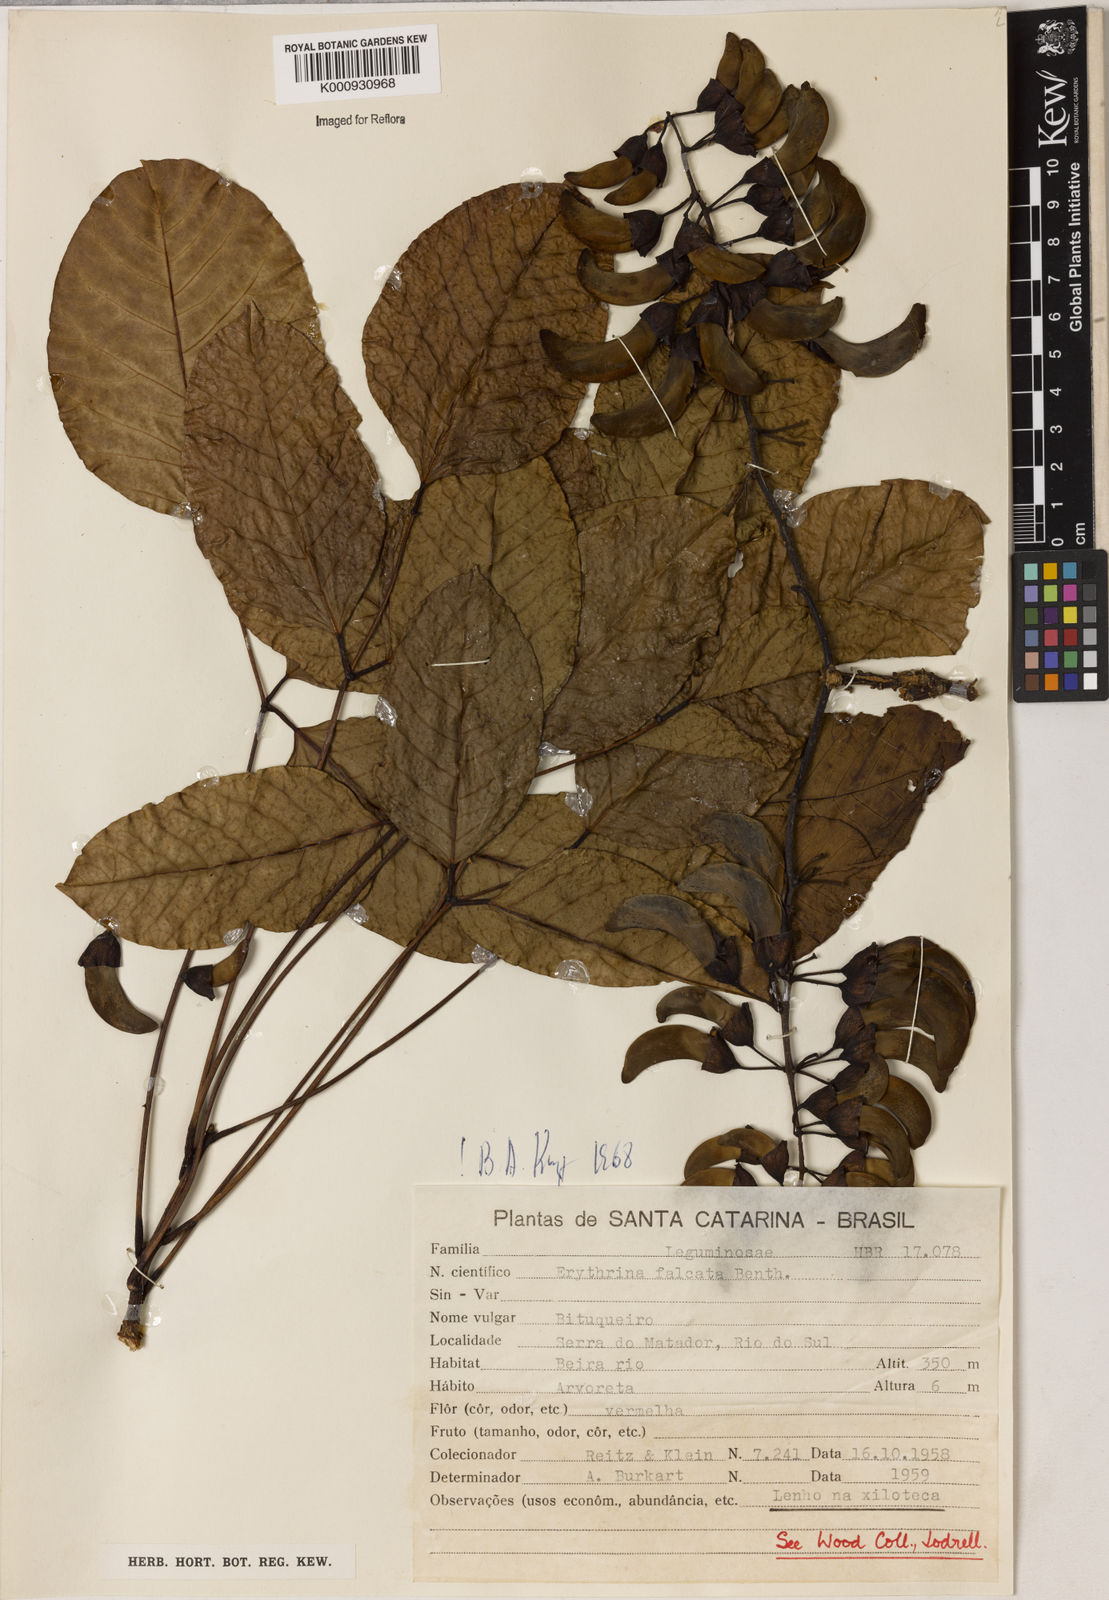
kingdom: Plantae
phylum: Tracheophyta
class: Magnoliopsida
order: Fabales
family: Fabaceae
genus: Erythrina
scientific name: Erythrina falcata
